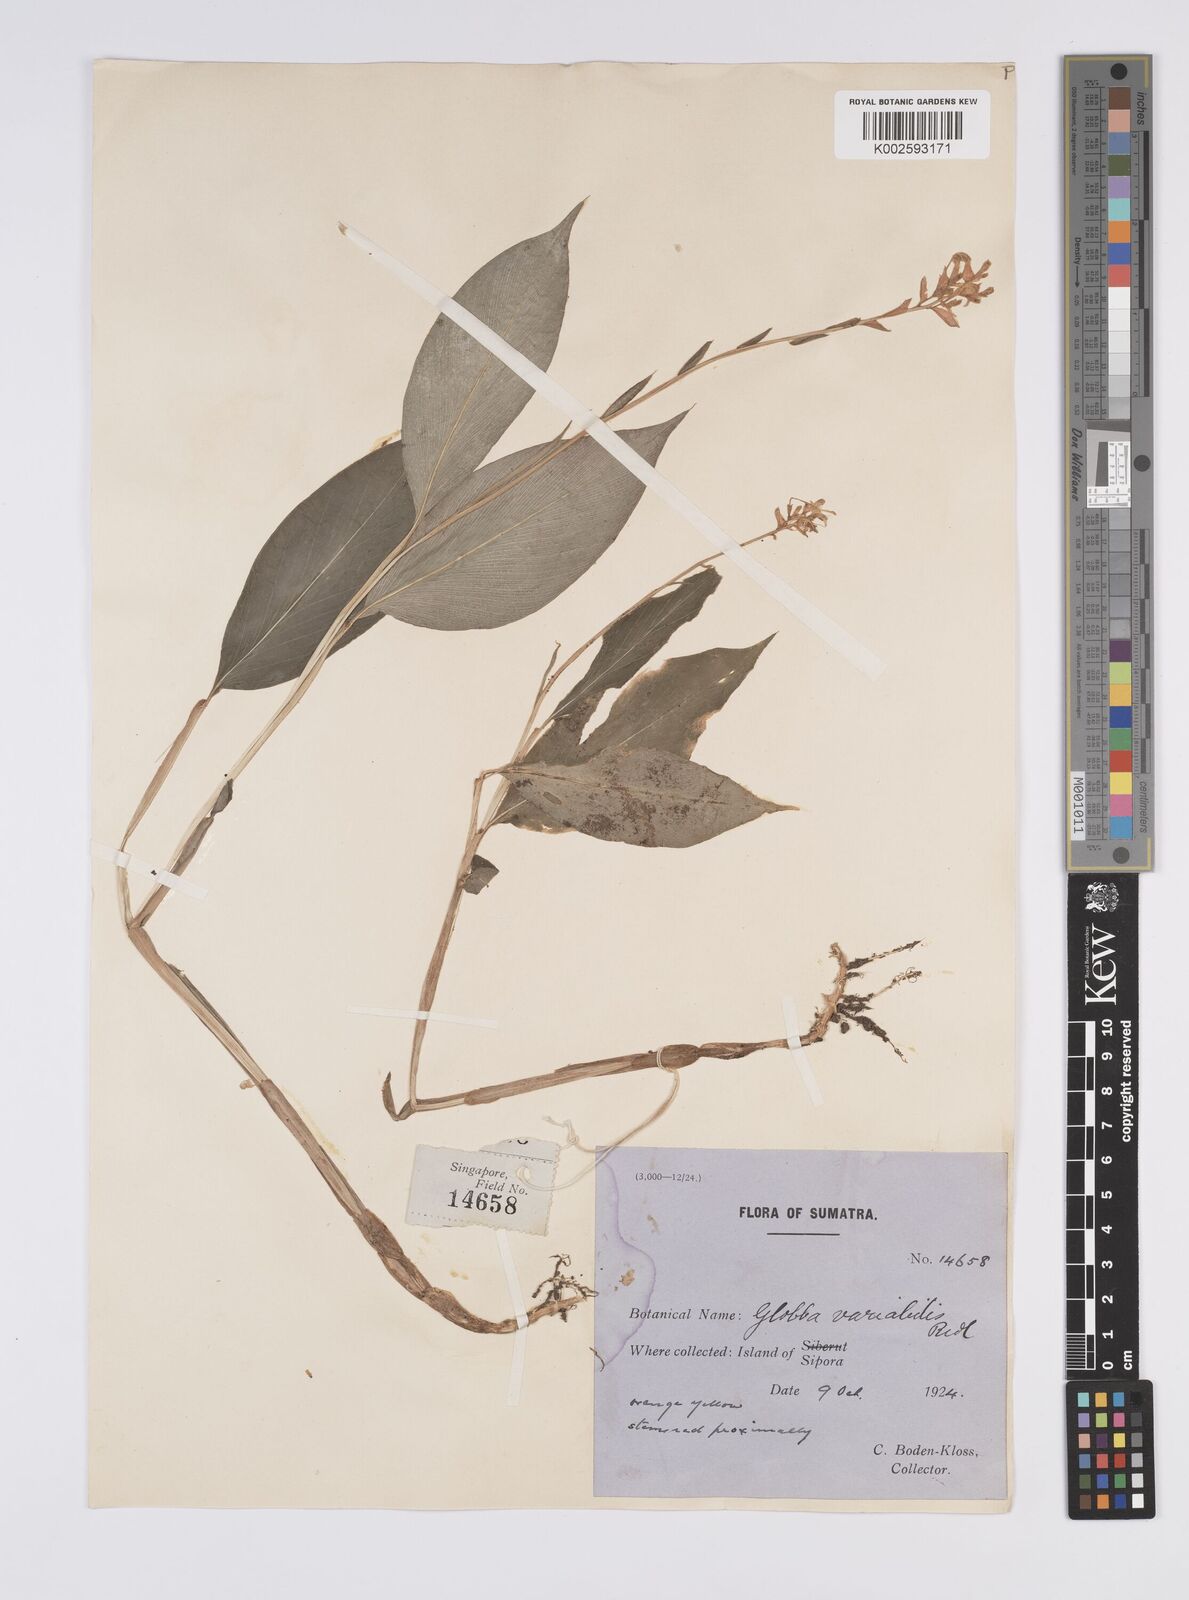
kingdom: Plantae
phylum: Tracheophyta
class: Liliopsida
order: Zingiberales
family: Zingiberaceae
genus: Globba
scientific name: Globba variabilis
